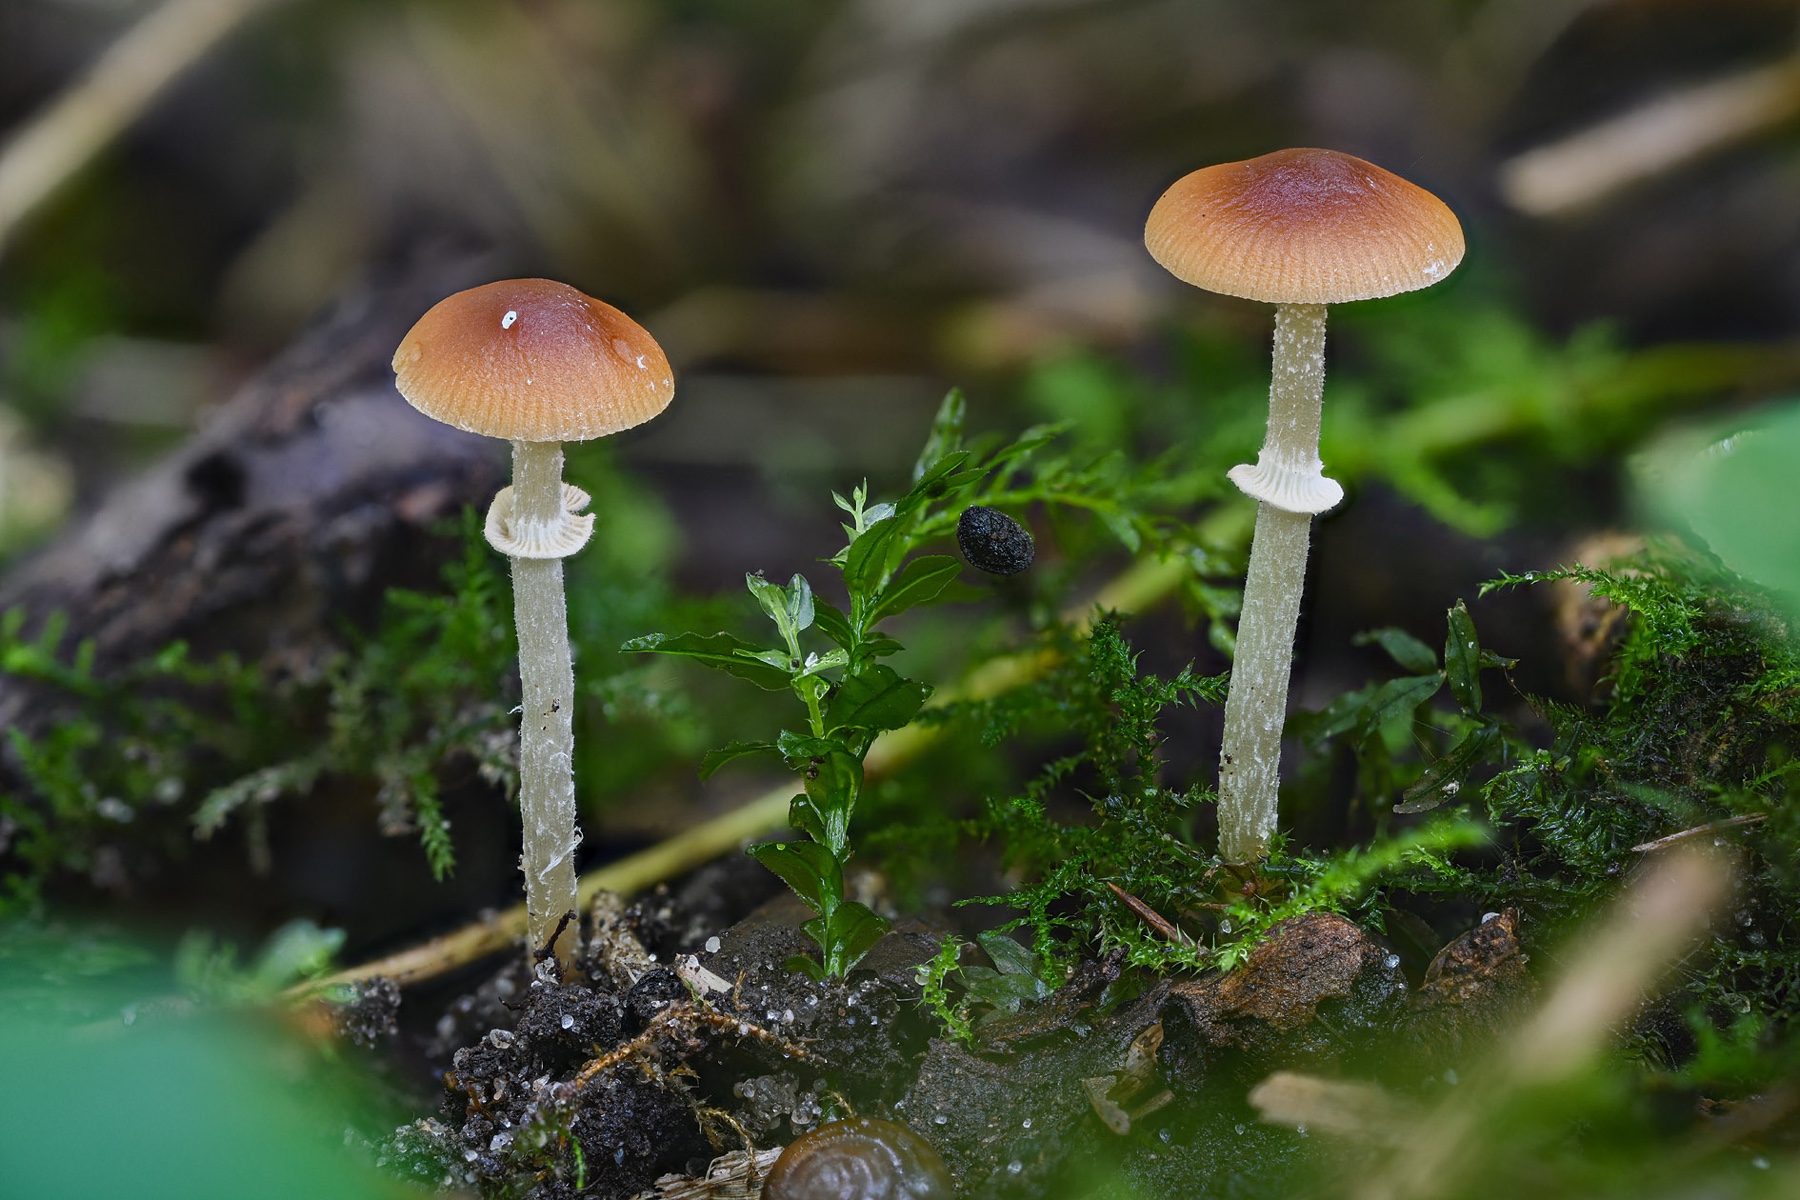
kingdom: Fungi
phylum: Basidiomycota
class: Agaricomycetes
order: Agaricales
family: Bolbitiaceae
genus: Conocybe
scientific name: Conocybe arrhenii
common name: ring-dansehat
